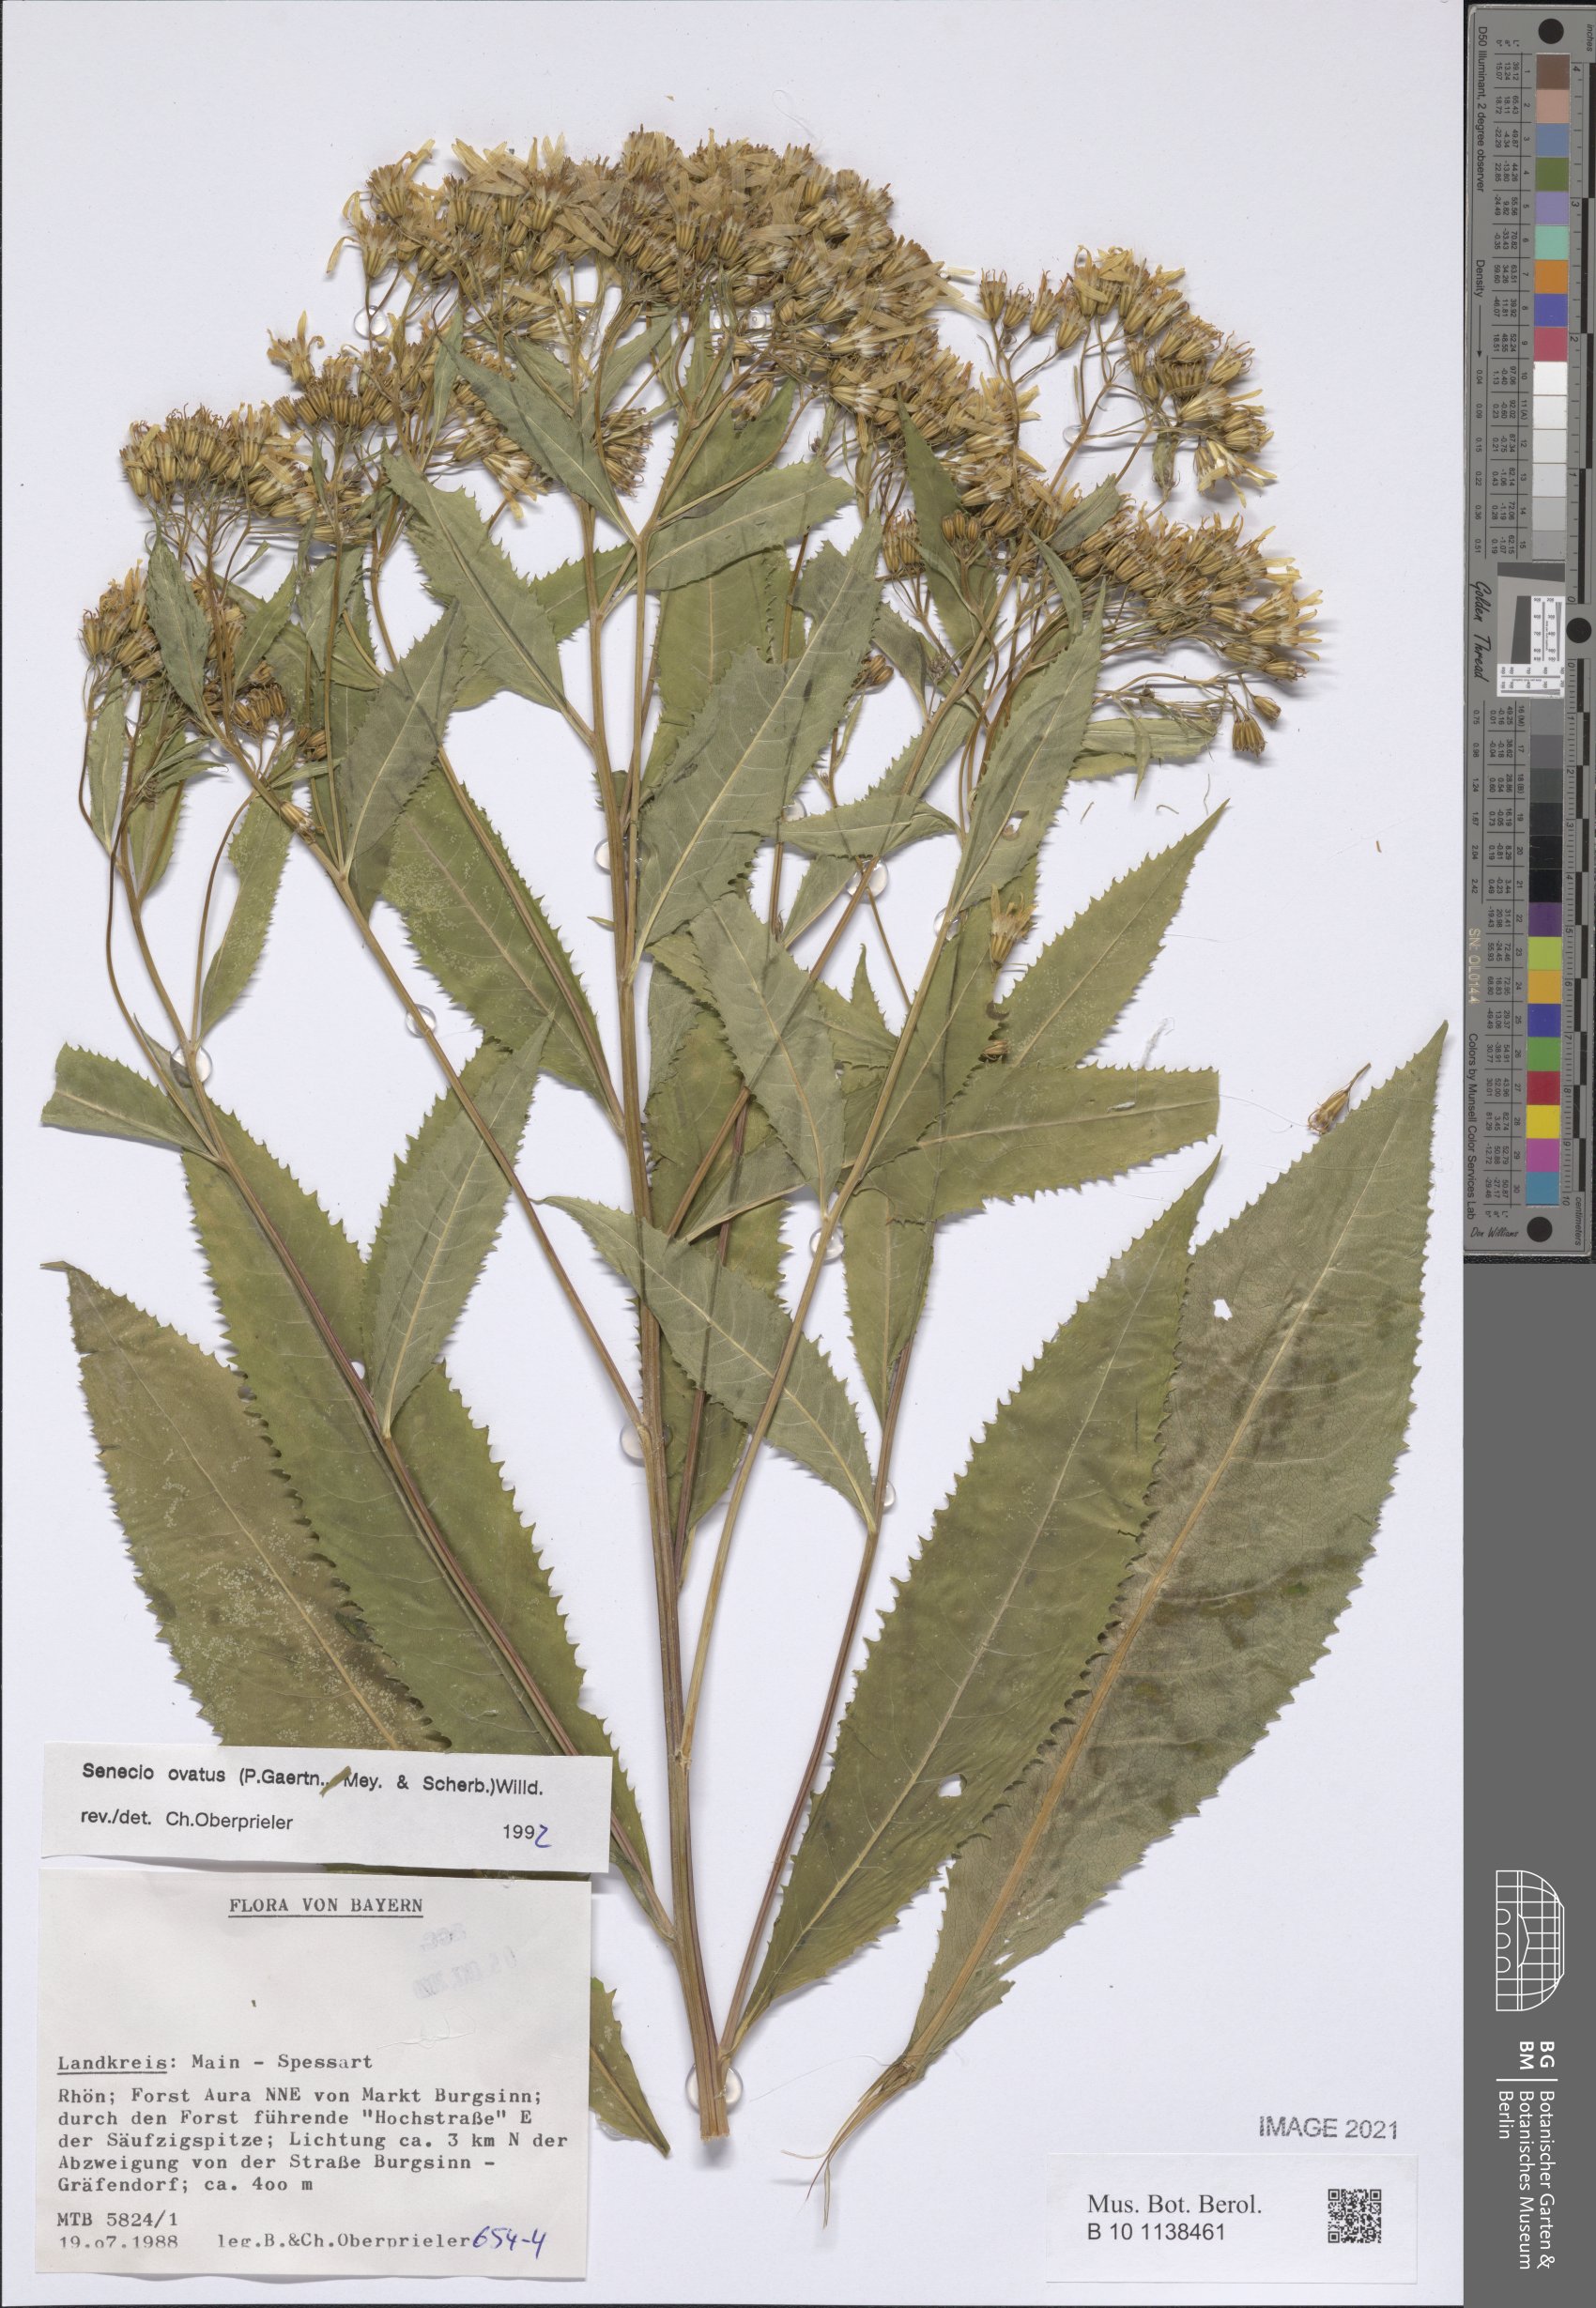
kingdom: Plantae
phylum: Tracheophyta
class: Magnoliopsida
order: Asterales
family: Asteraceae
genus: Senecio
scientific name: Senecio ovatus
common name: Wood ragwort
